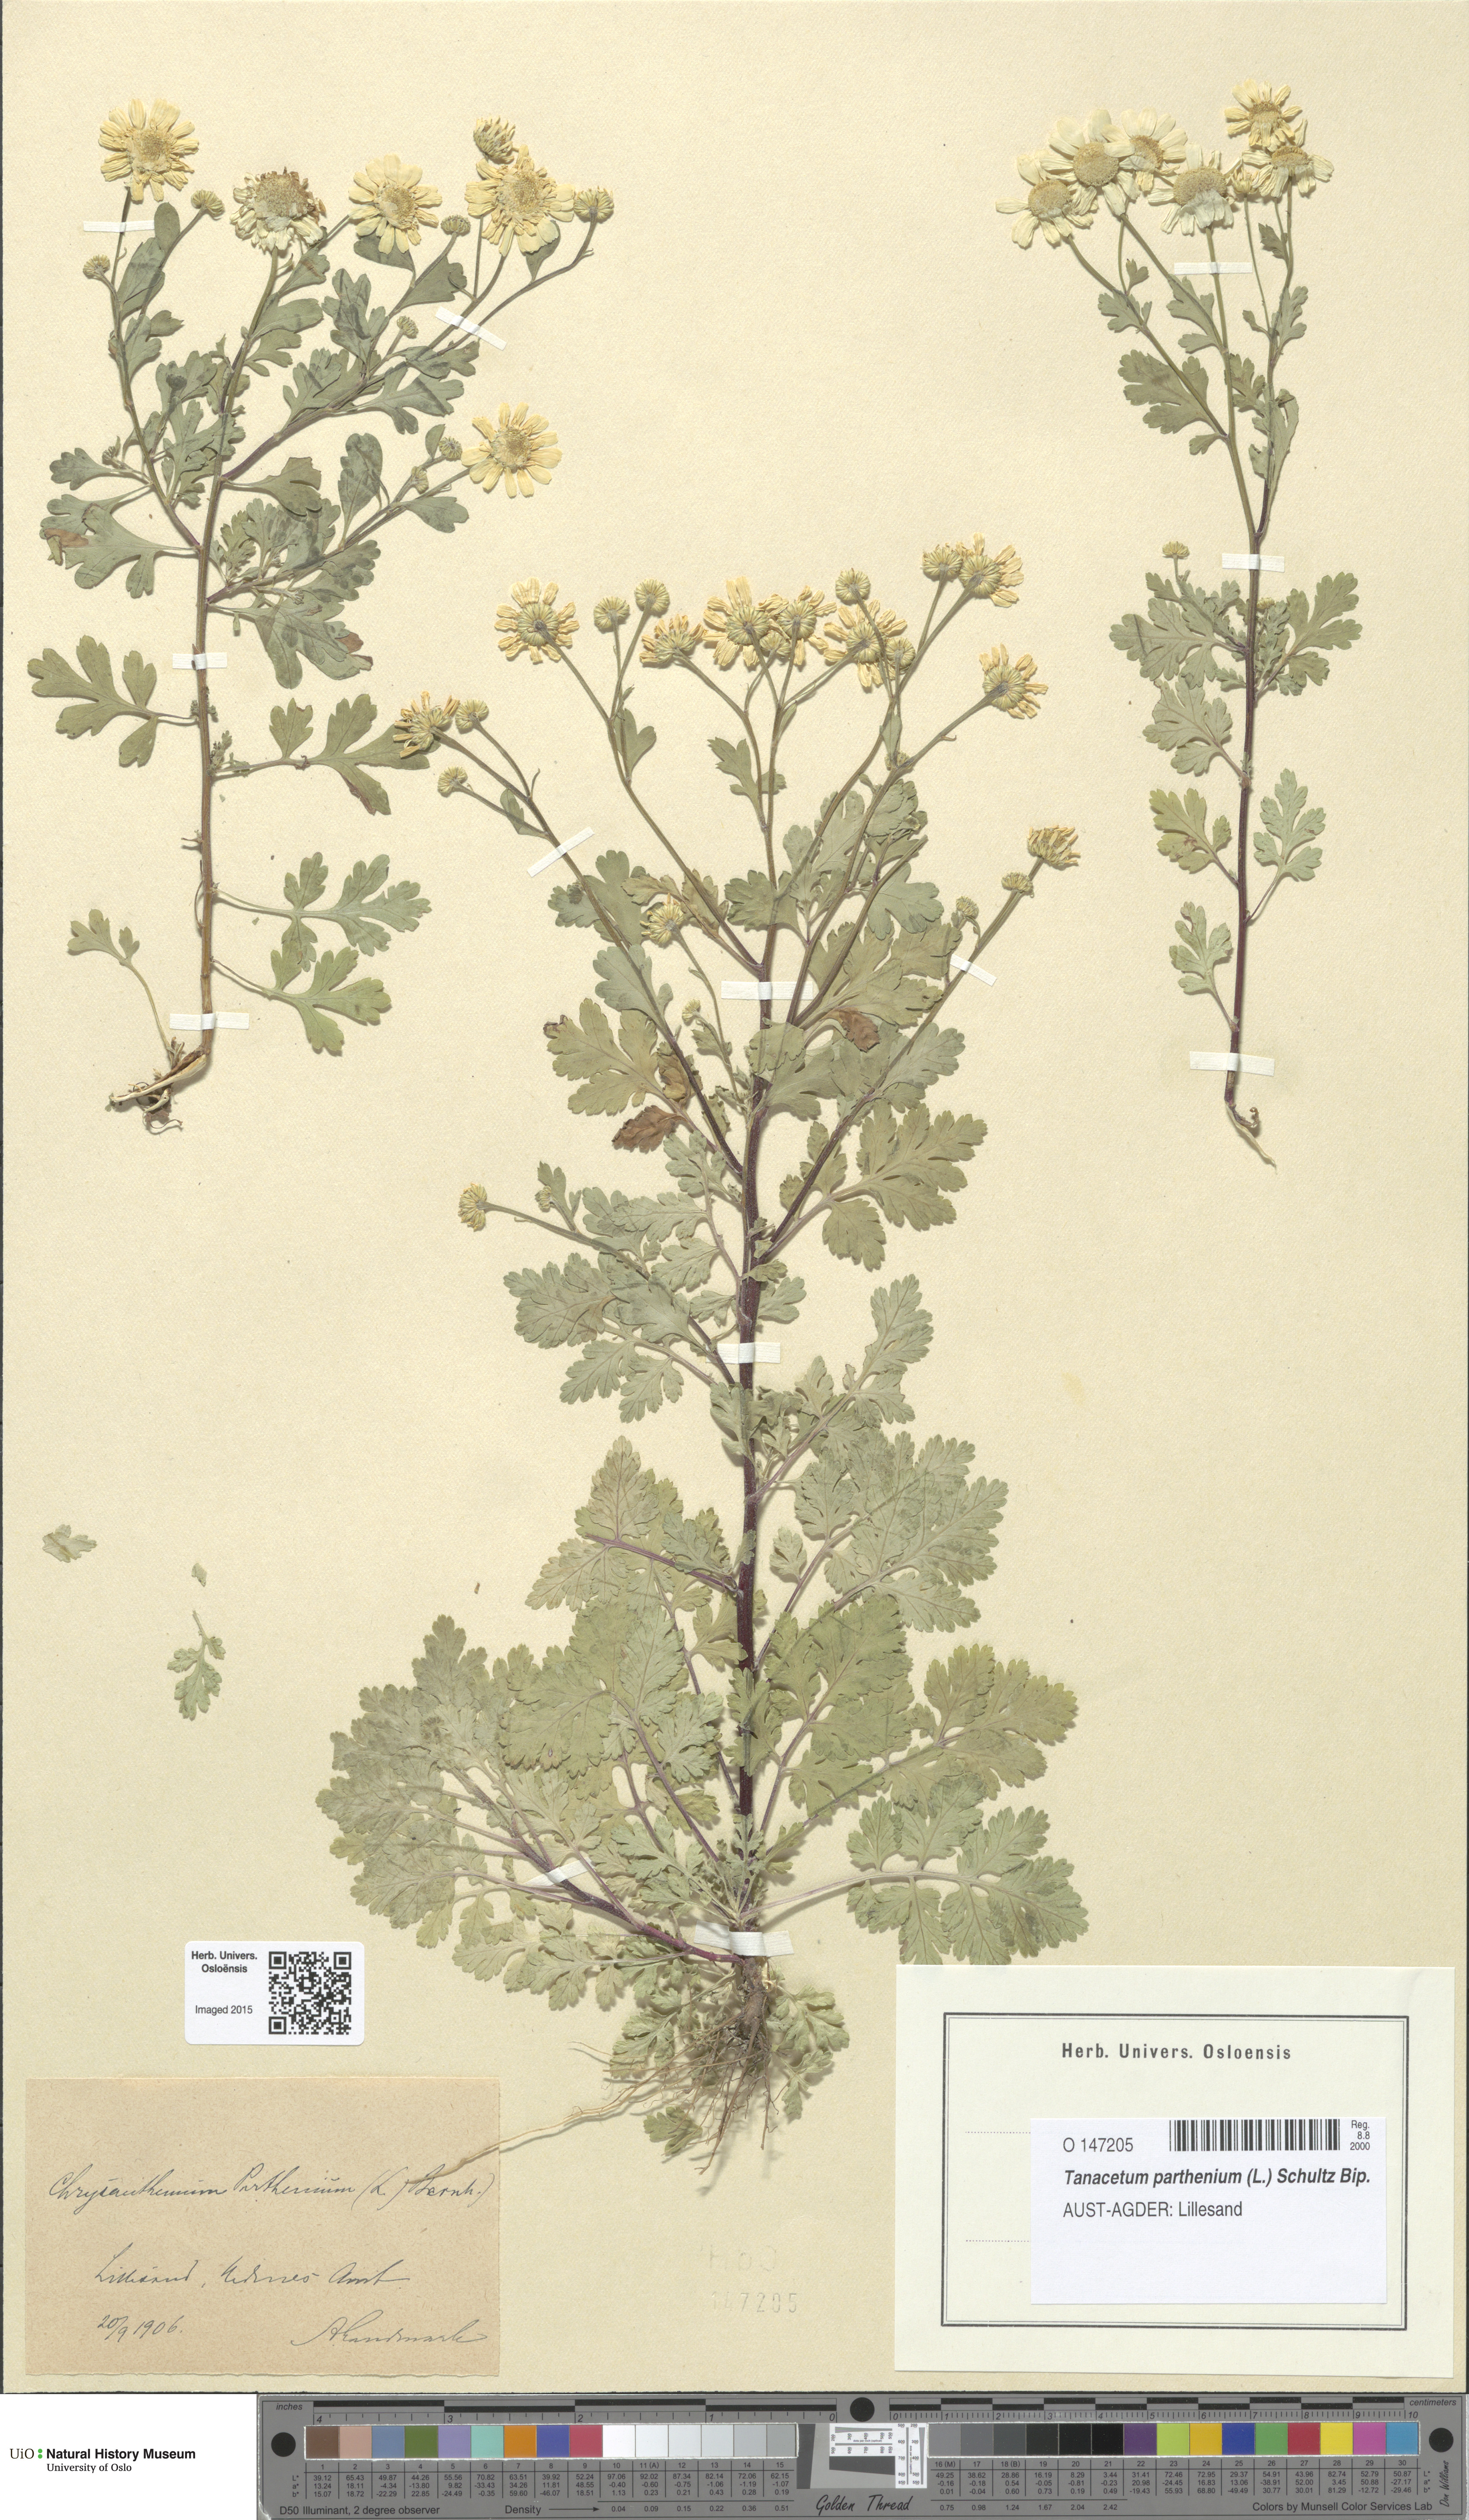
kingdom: Plantae
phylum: Tracheophyta
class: Magnoliopsida
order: Asterales
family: Asteraceae
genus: Tanacetum
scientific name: Tanacetum parthenium
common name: Feverfew
